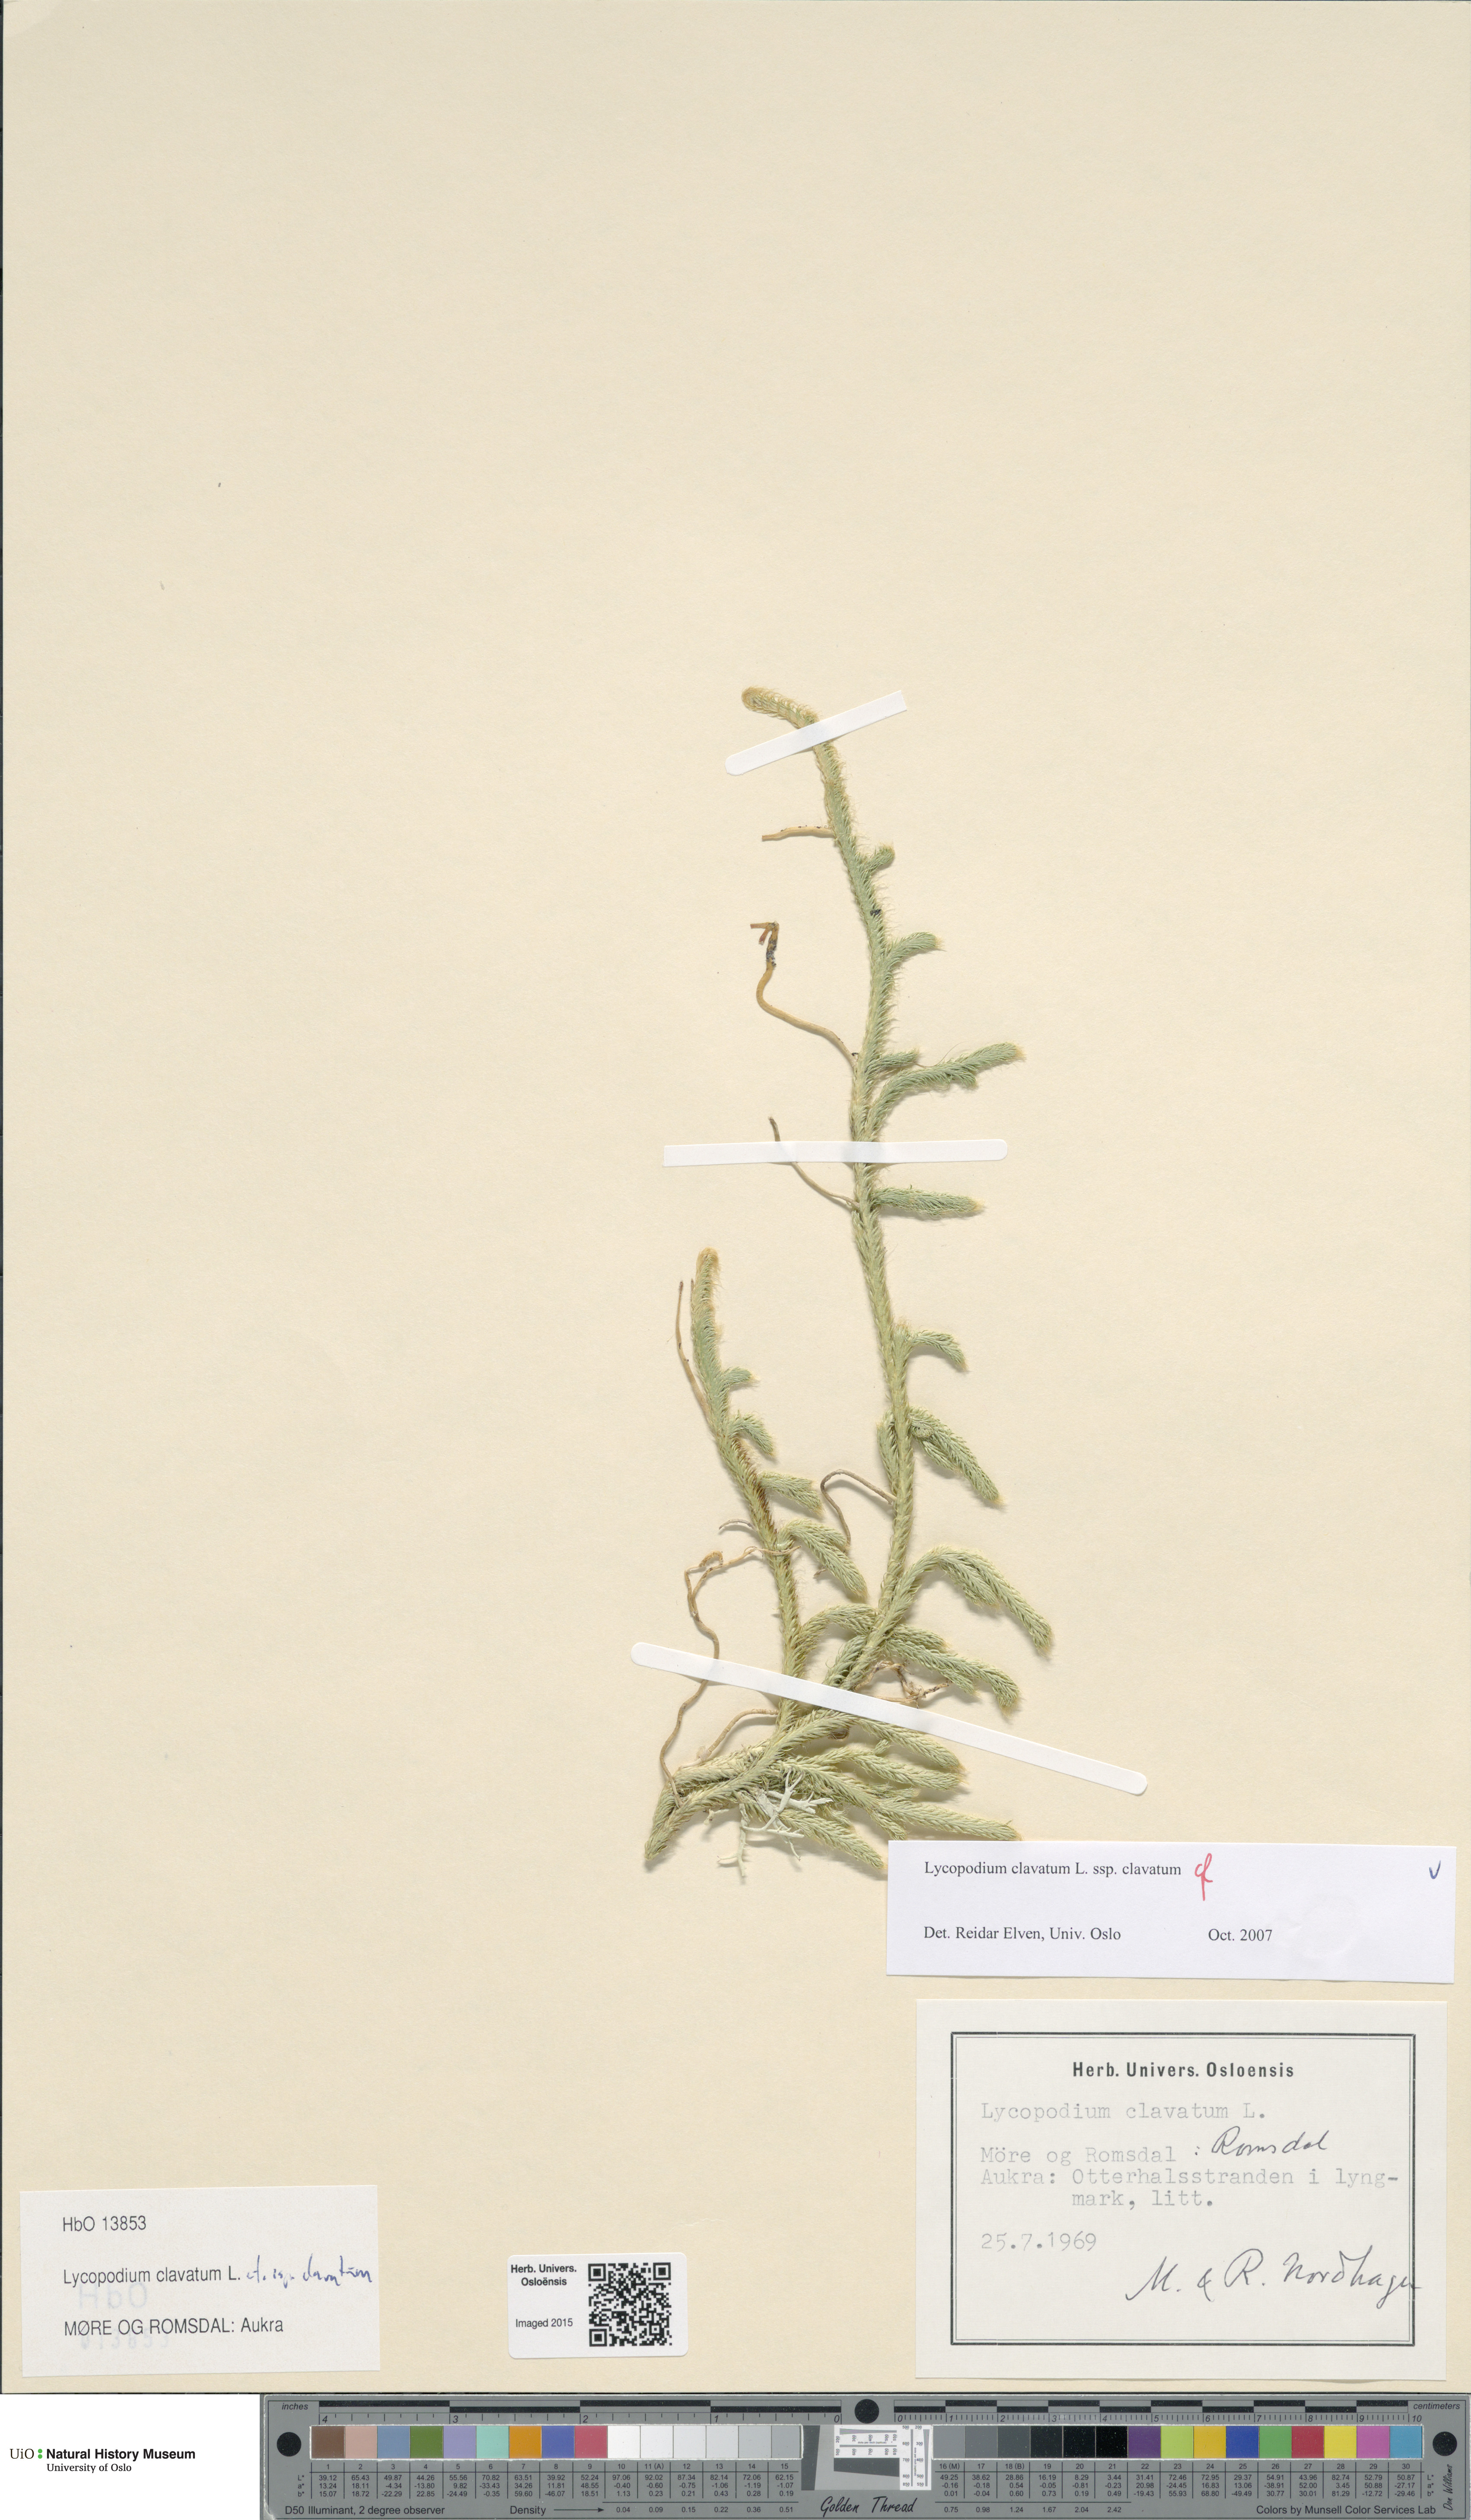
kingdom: Plantae
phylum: Tracheophyta
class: Lycopodiopsida
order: Lycopodiales
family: Lycopodiaceae
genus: Lycopodium
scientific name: Lycopodium clavatum
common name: Stag's-horn clubmoss
